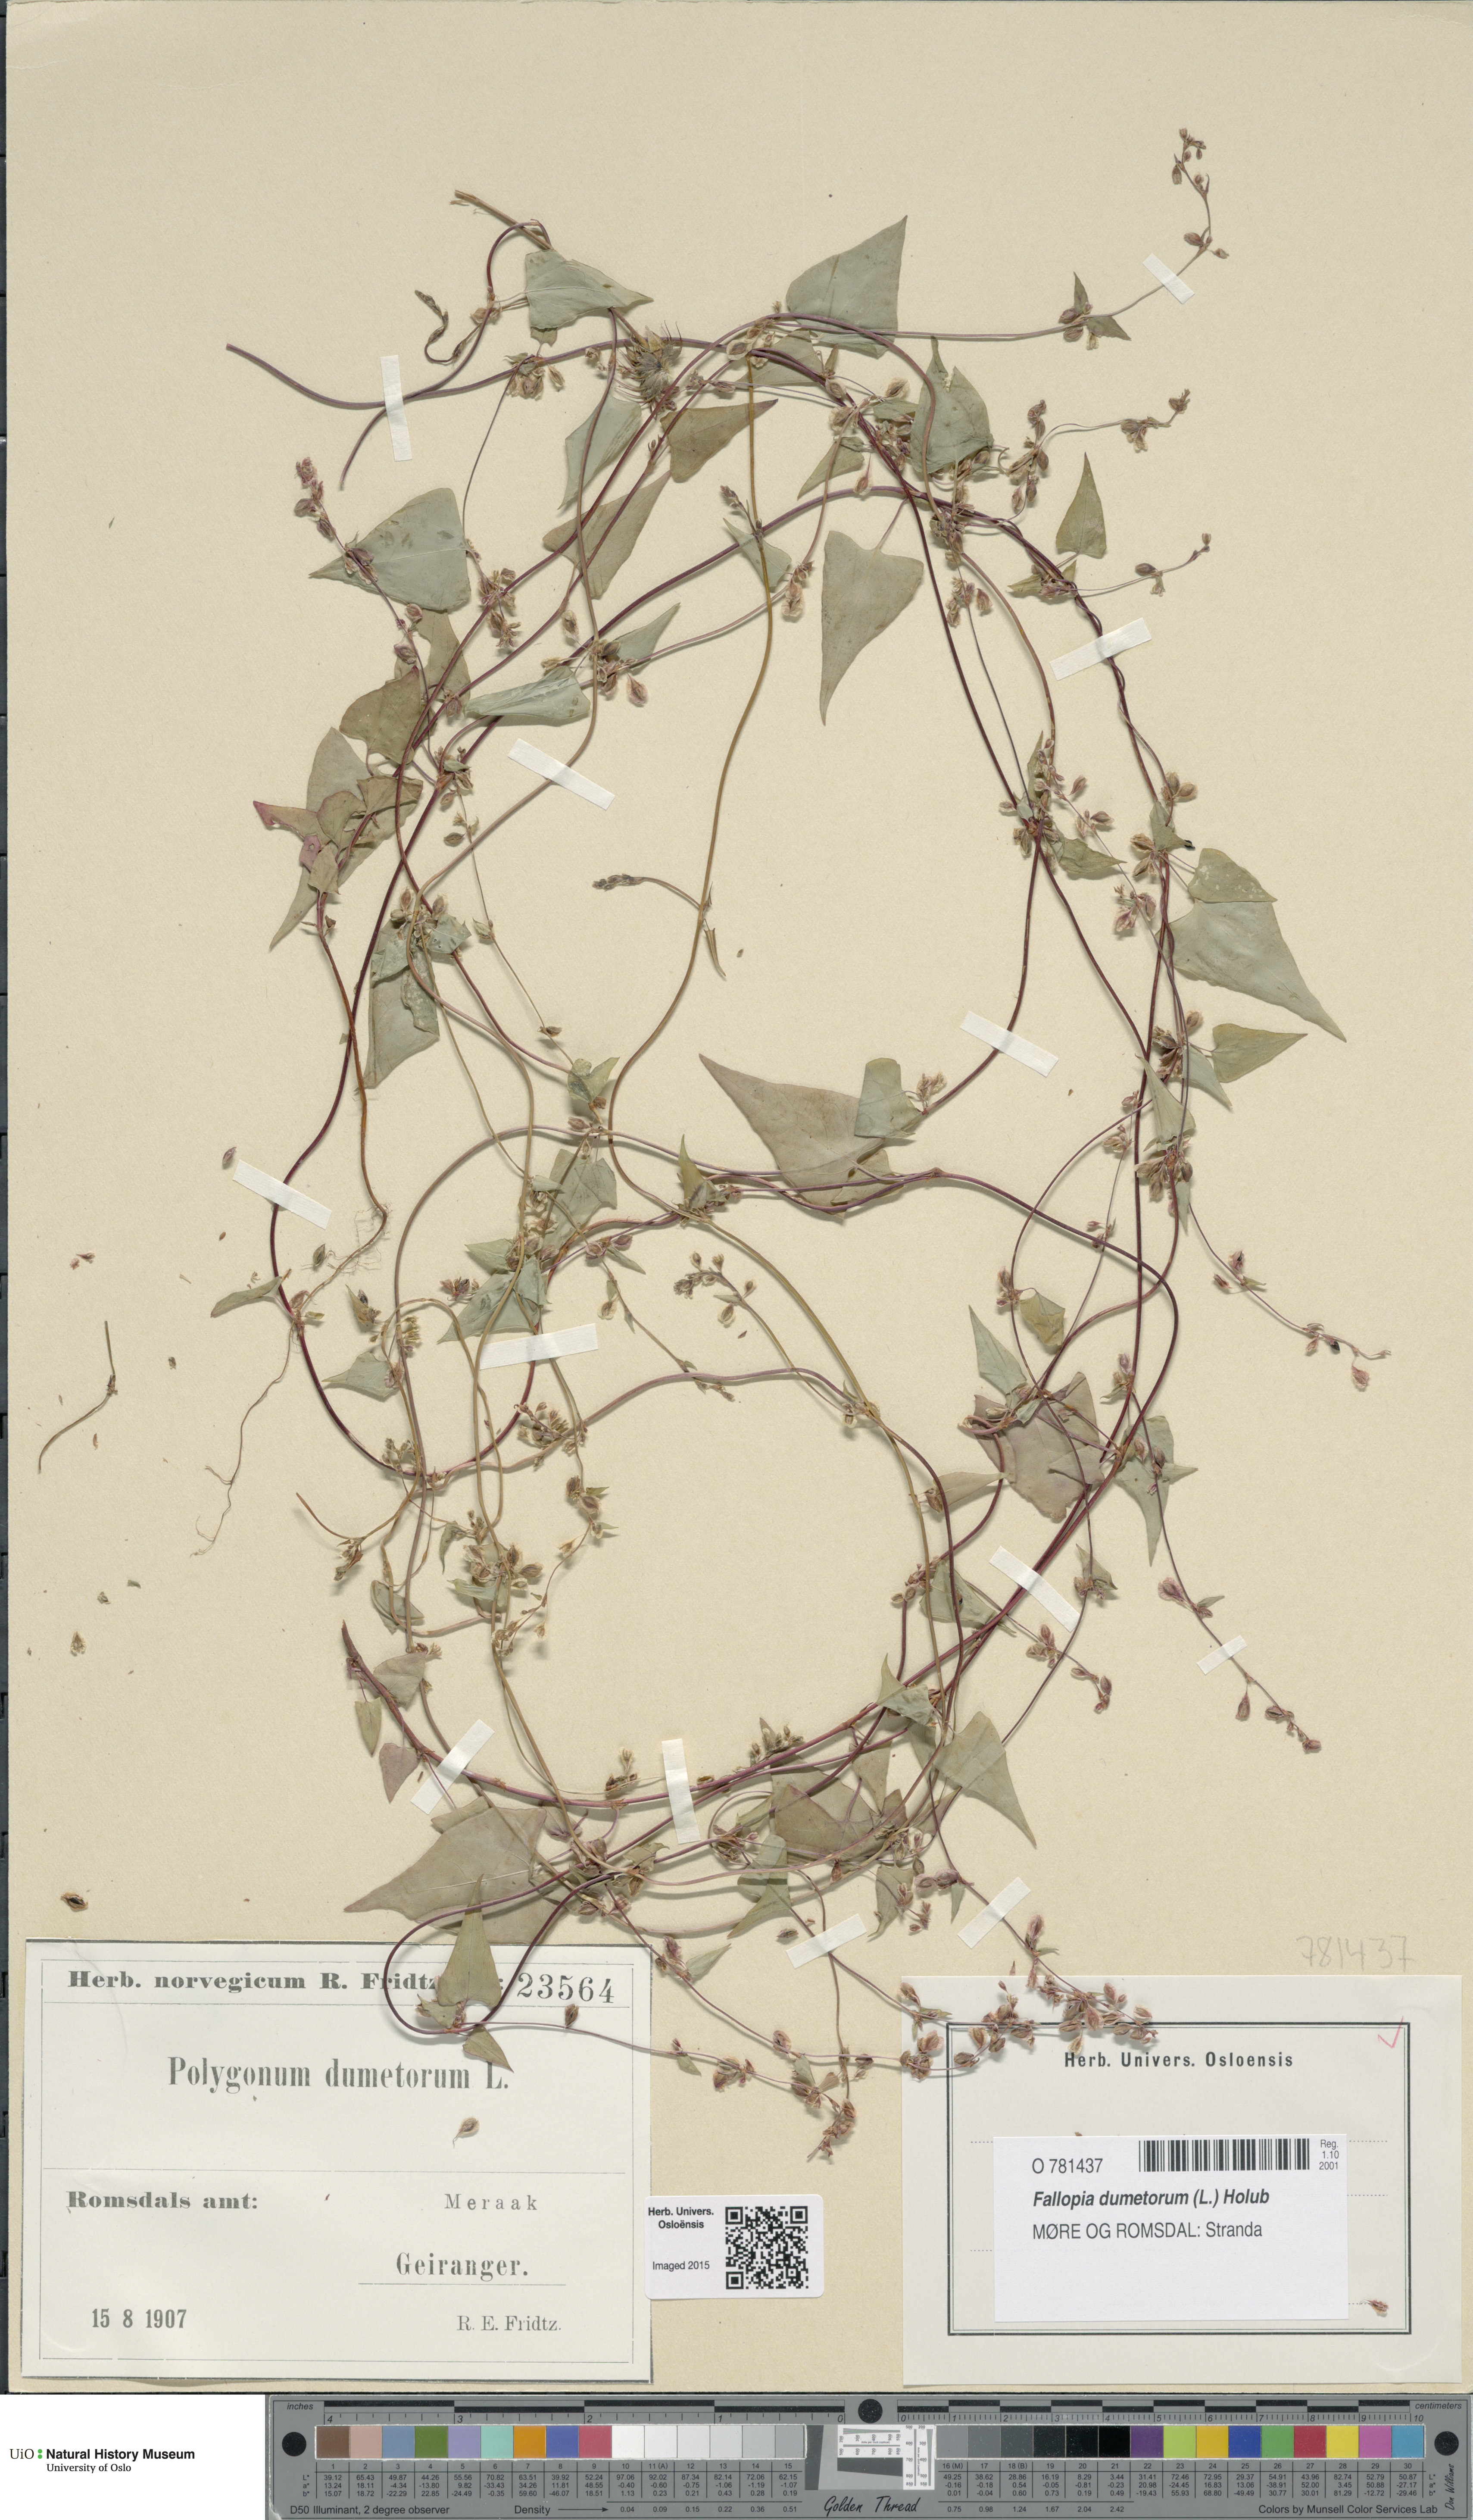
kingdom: Plantae
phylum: Tracheophyta
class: Magnoliopsida
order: Caryophyllales
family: Polygonaceae
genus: Fallopia
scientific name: Fallopia dumetorum
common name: Copse-bindweed
